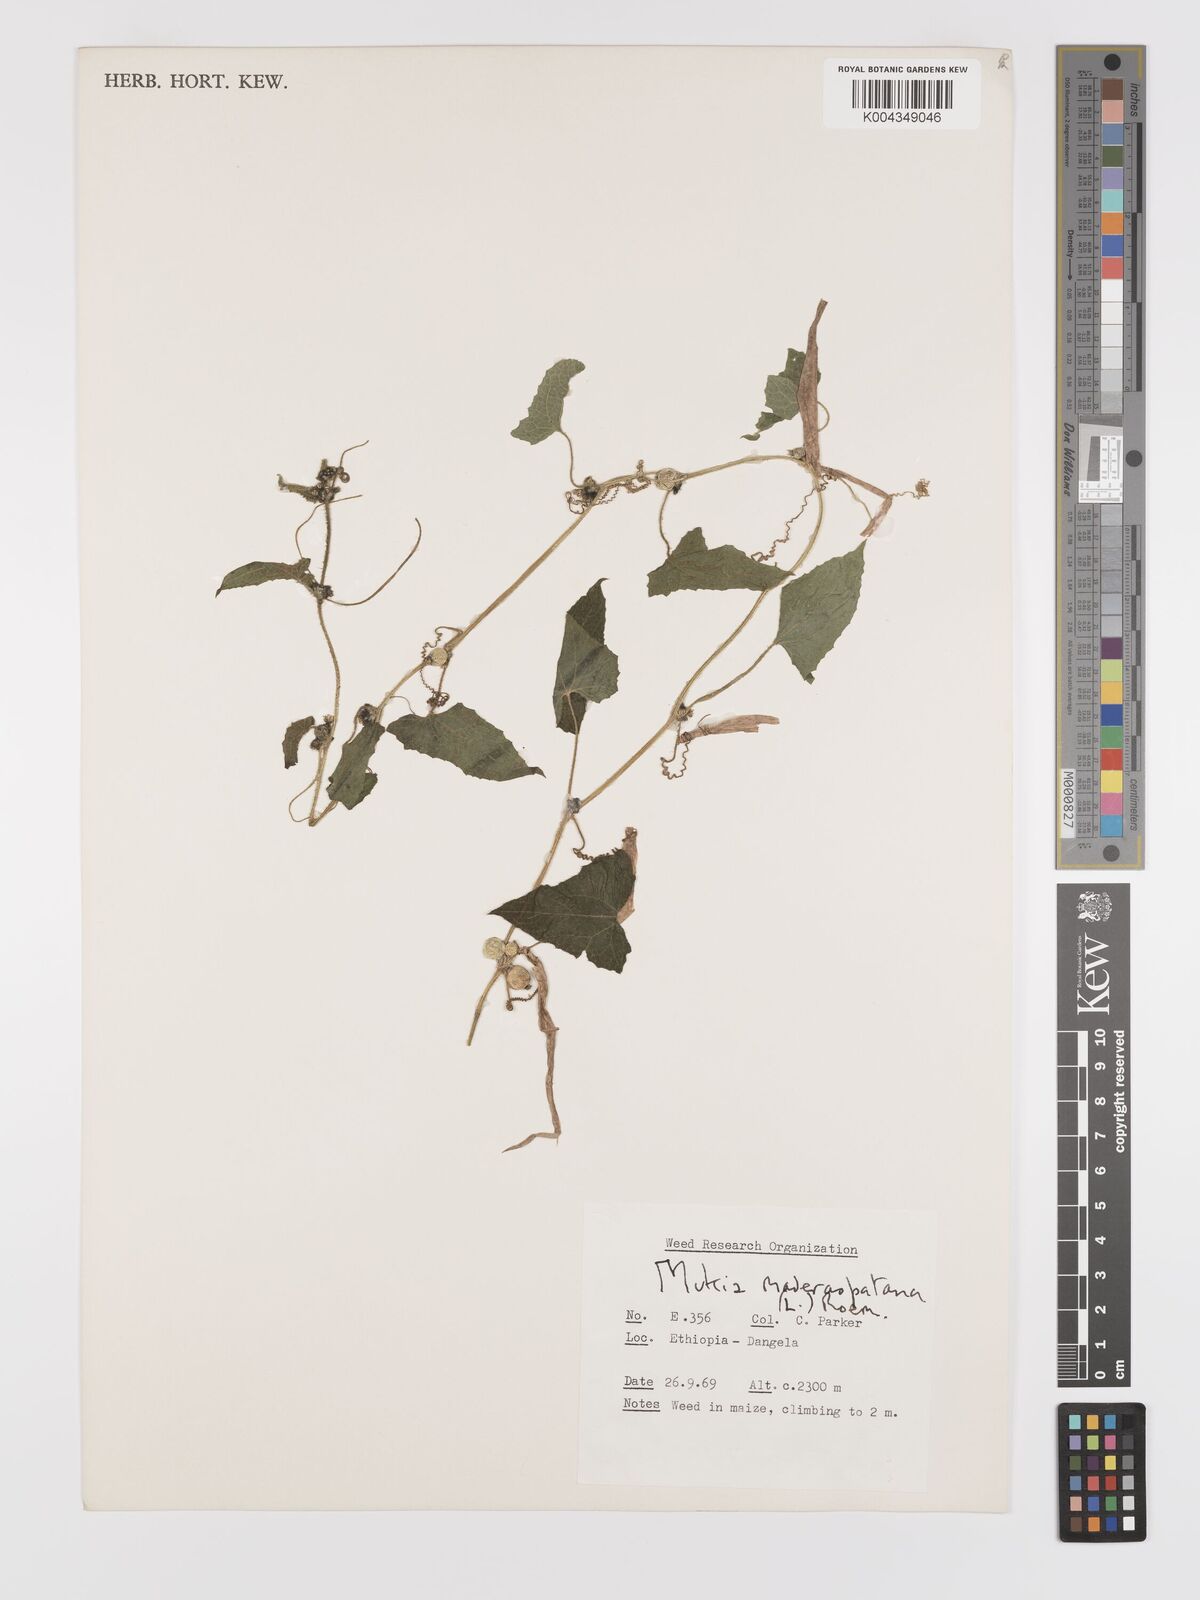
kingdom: Plantae
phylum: Tracheophyta
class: Magnoliopsida
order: Cucurbitales
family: Cucurbitaceae
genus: Cucumis
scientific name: Cucumis maderaspatanus
